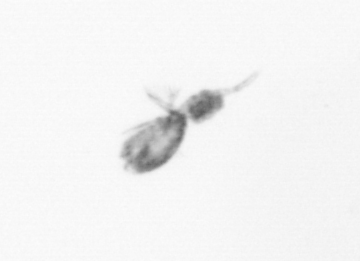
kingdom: Animalia
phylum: Arthropoda
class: Copepoda
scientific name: Copepoda
